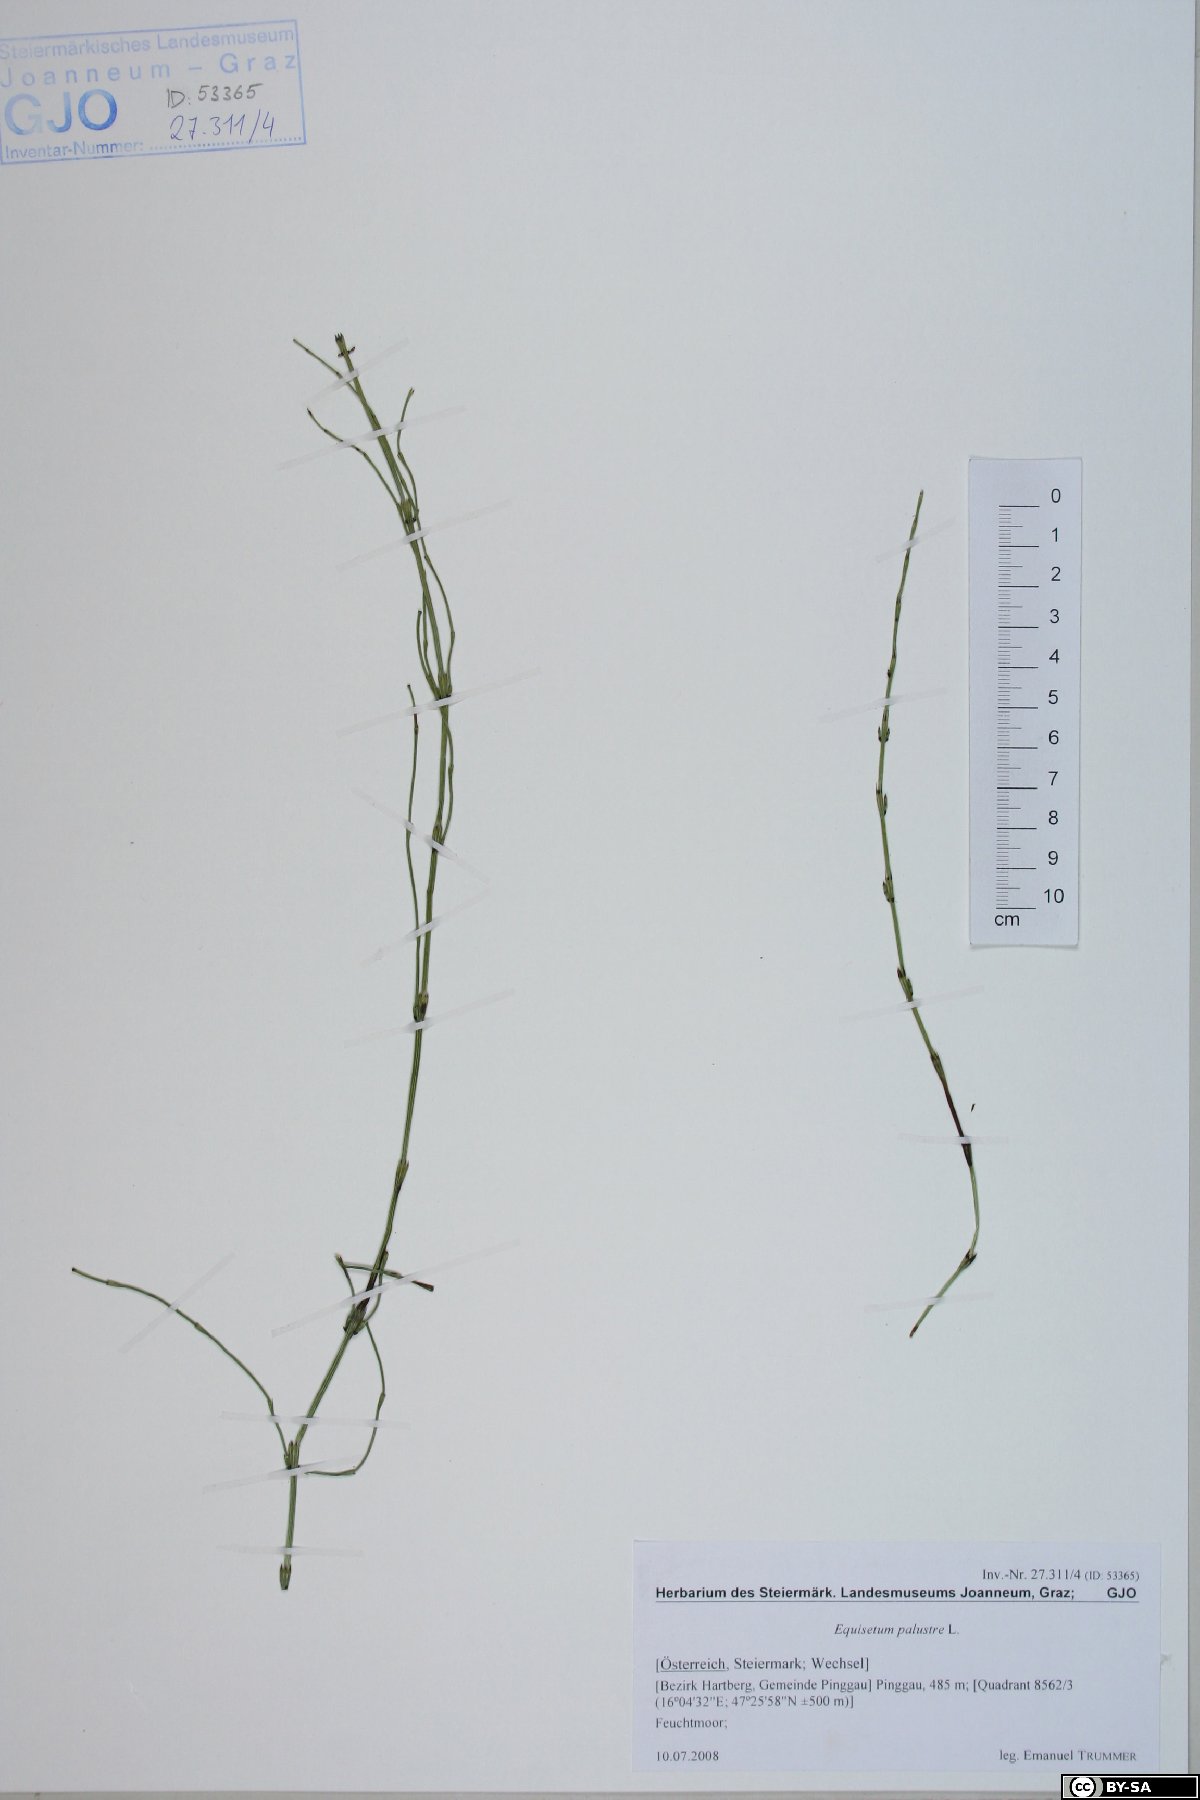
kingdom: Plantae
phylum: Tracheophyta
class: Polypodiopsida
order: Equisetales
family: Equisetaceae
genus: Equisetum
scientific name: Equisetum palustre
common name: Marsh horsetail
